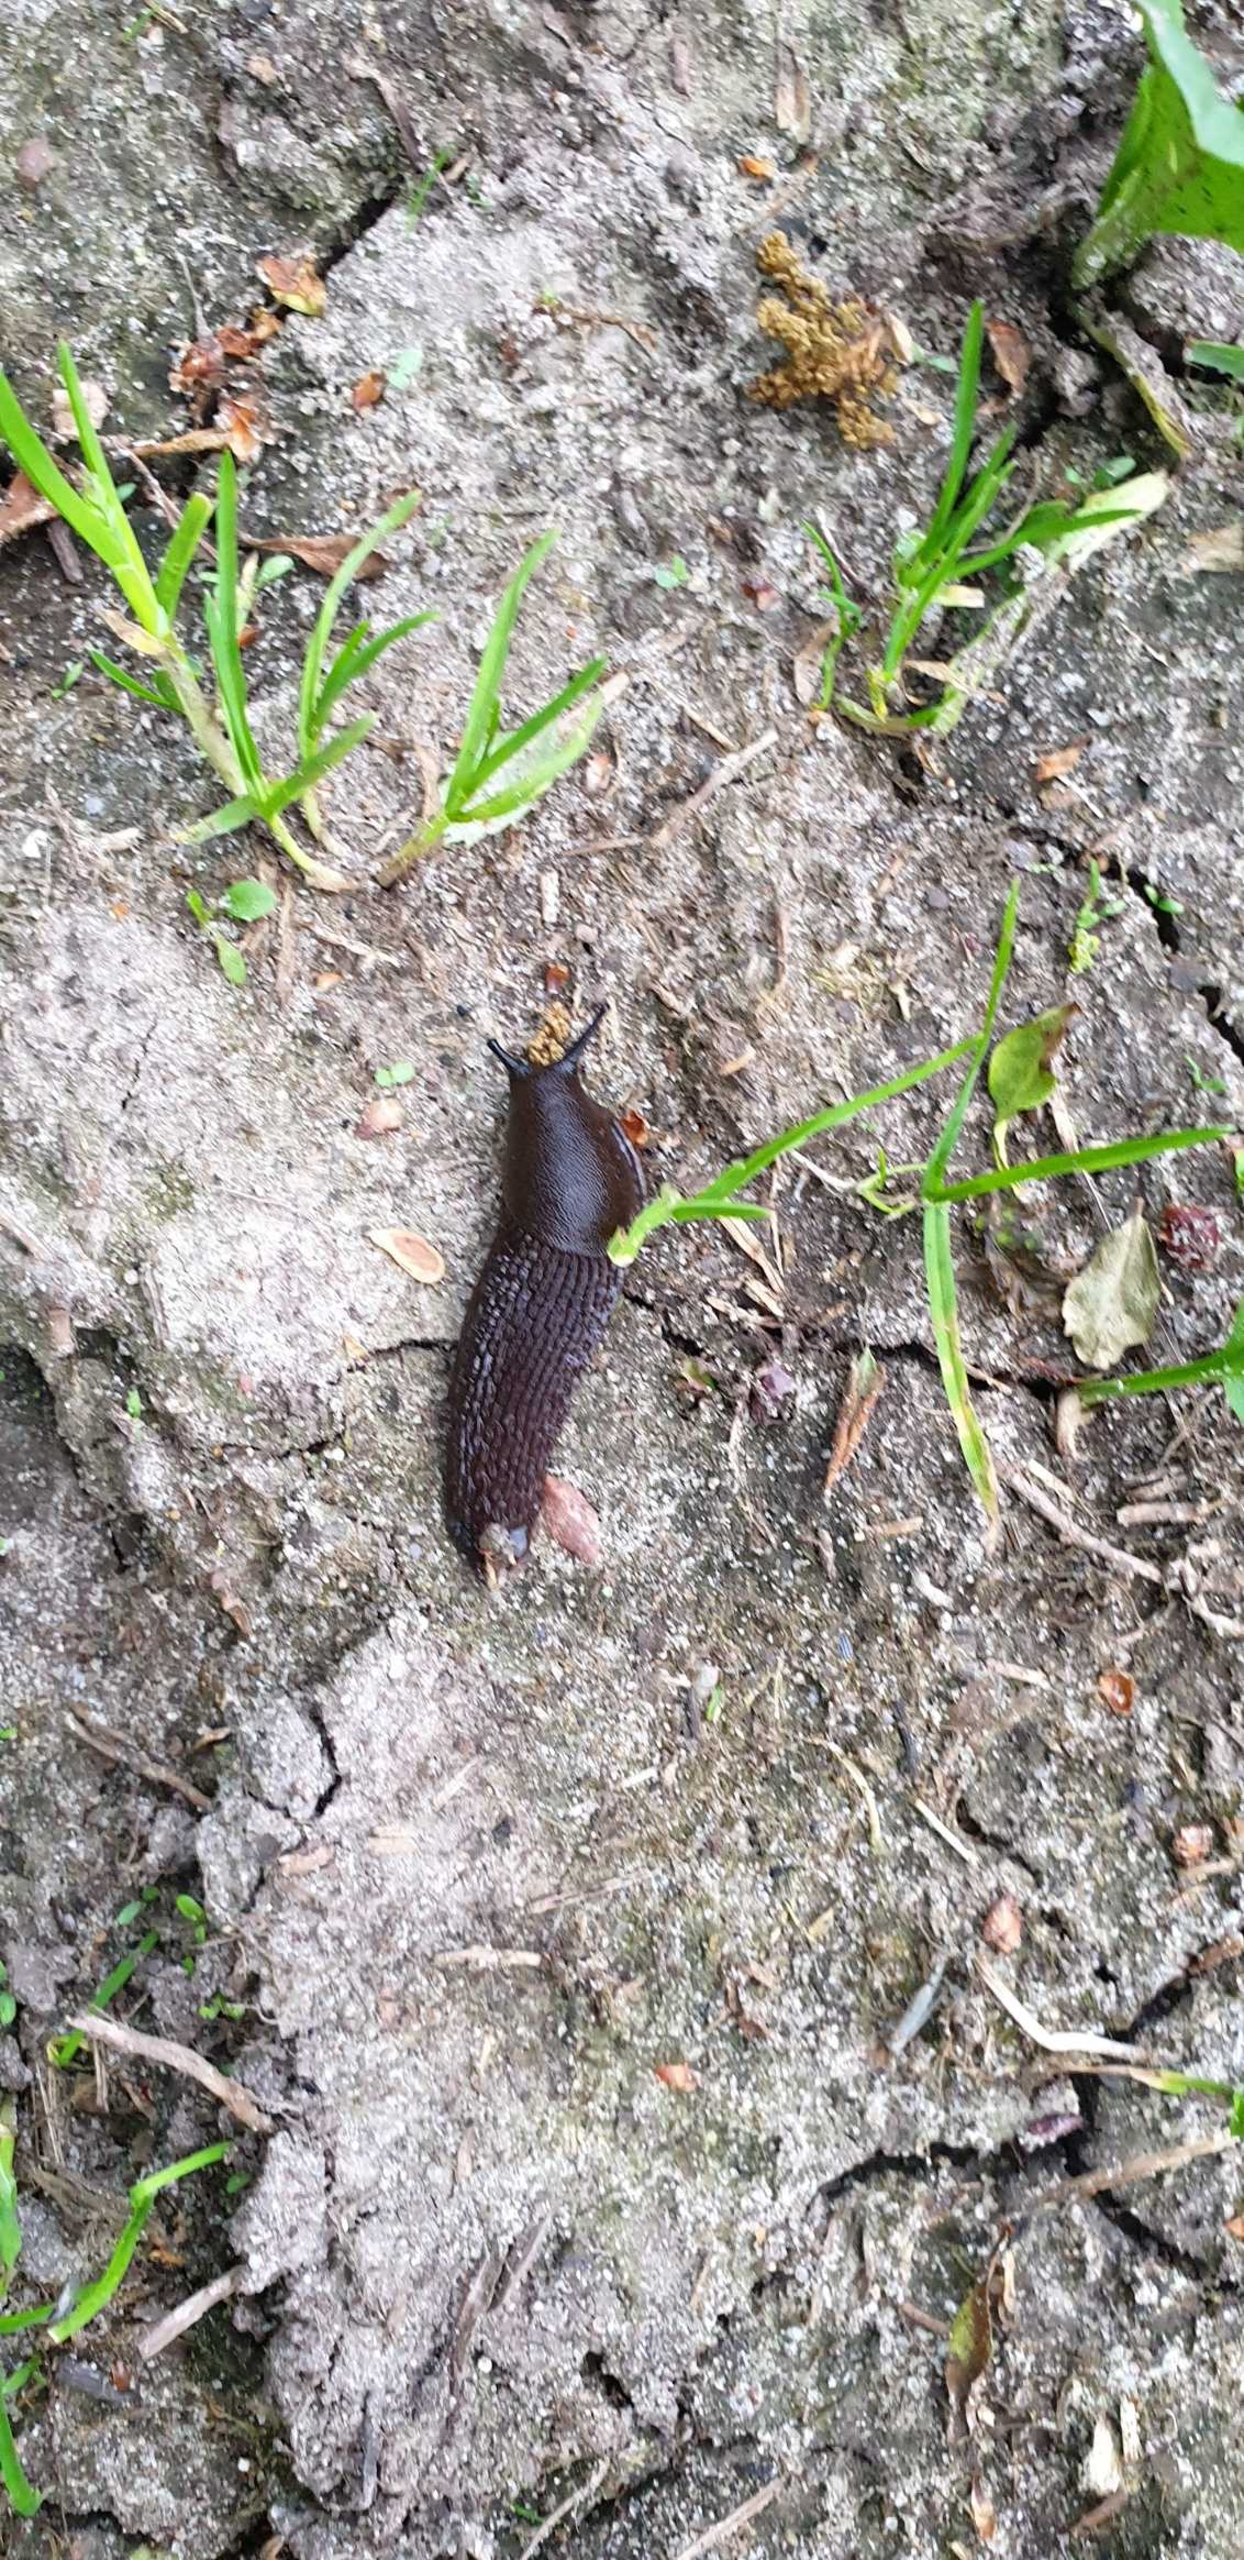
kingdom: Animalia
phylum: Mollusca
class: Gastropoda
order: Stylommatophora
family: Arionidae
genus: Arion
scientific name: Arion ater
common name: Sort skovsnegl
